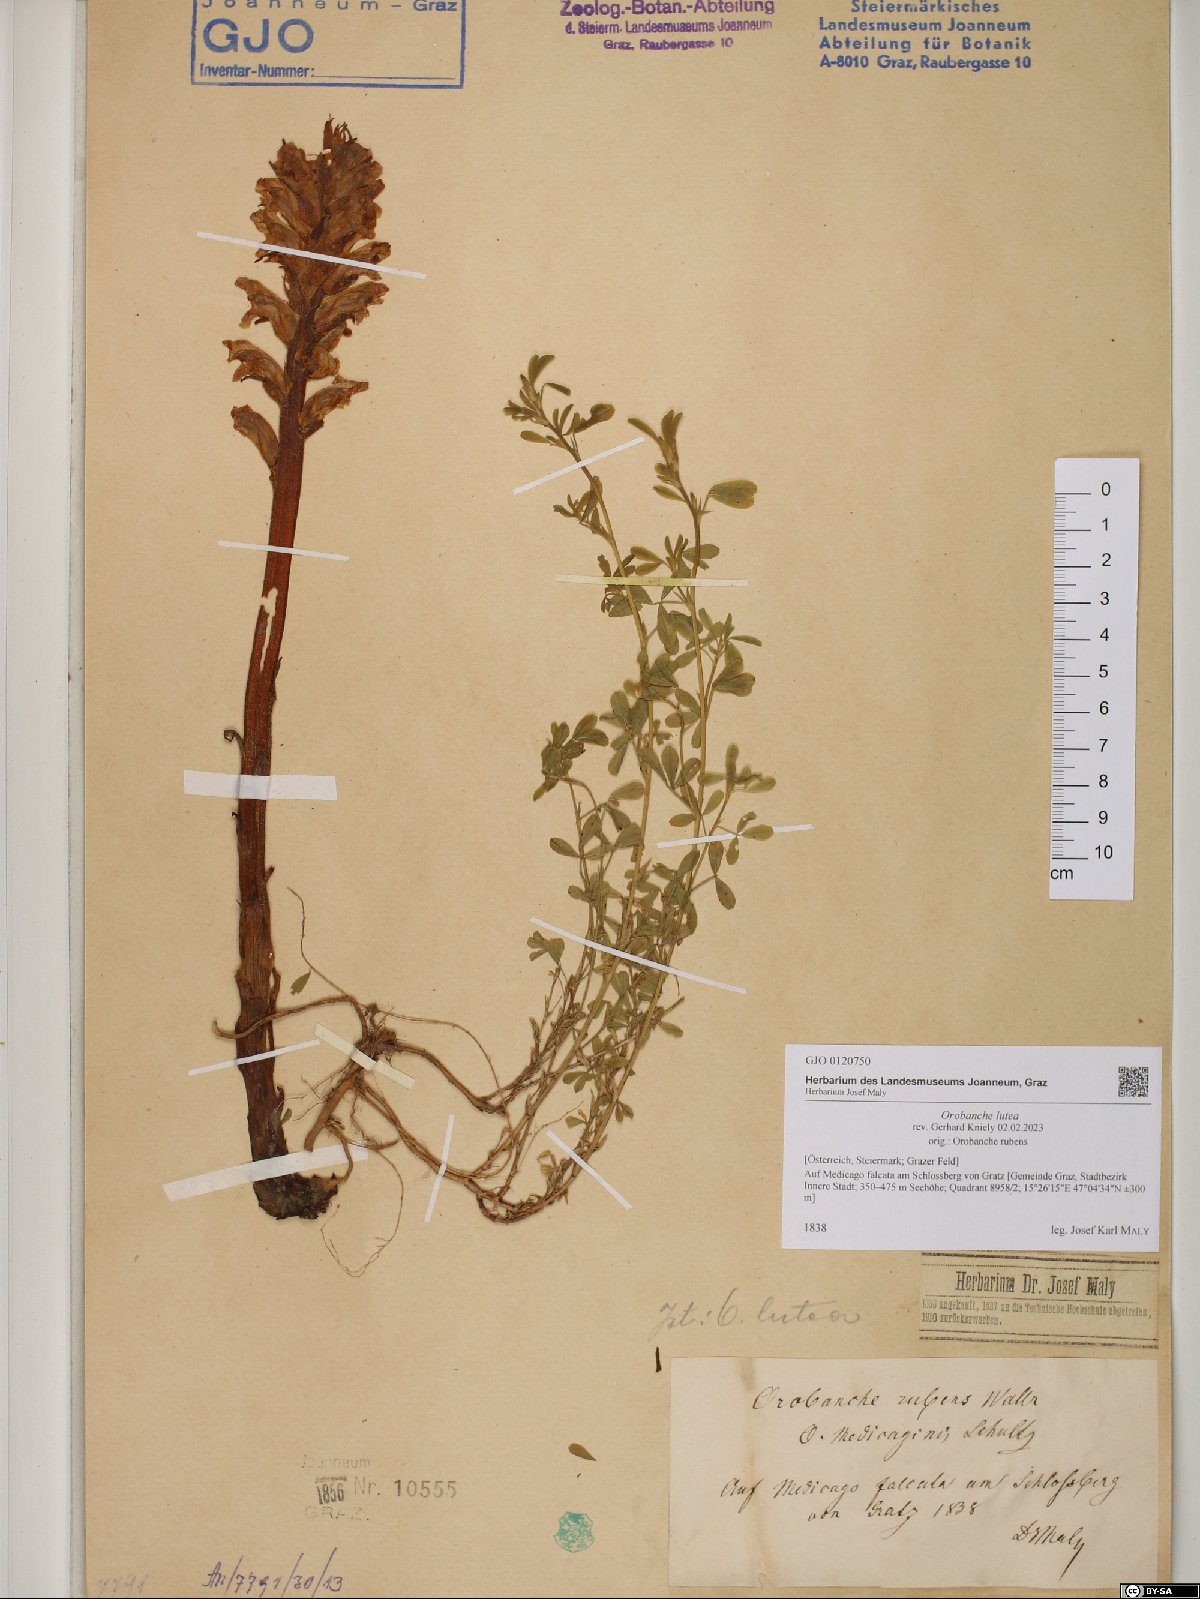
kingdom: Plantae
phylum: Tracheophyta
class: Magnoliopsida
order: Lamiales
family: Orobanchaceae
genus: Orobanche
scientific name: Orobanche lutea
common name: Yellow broomrape
